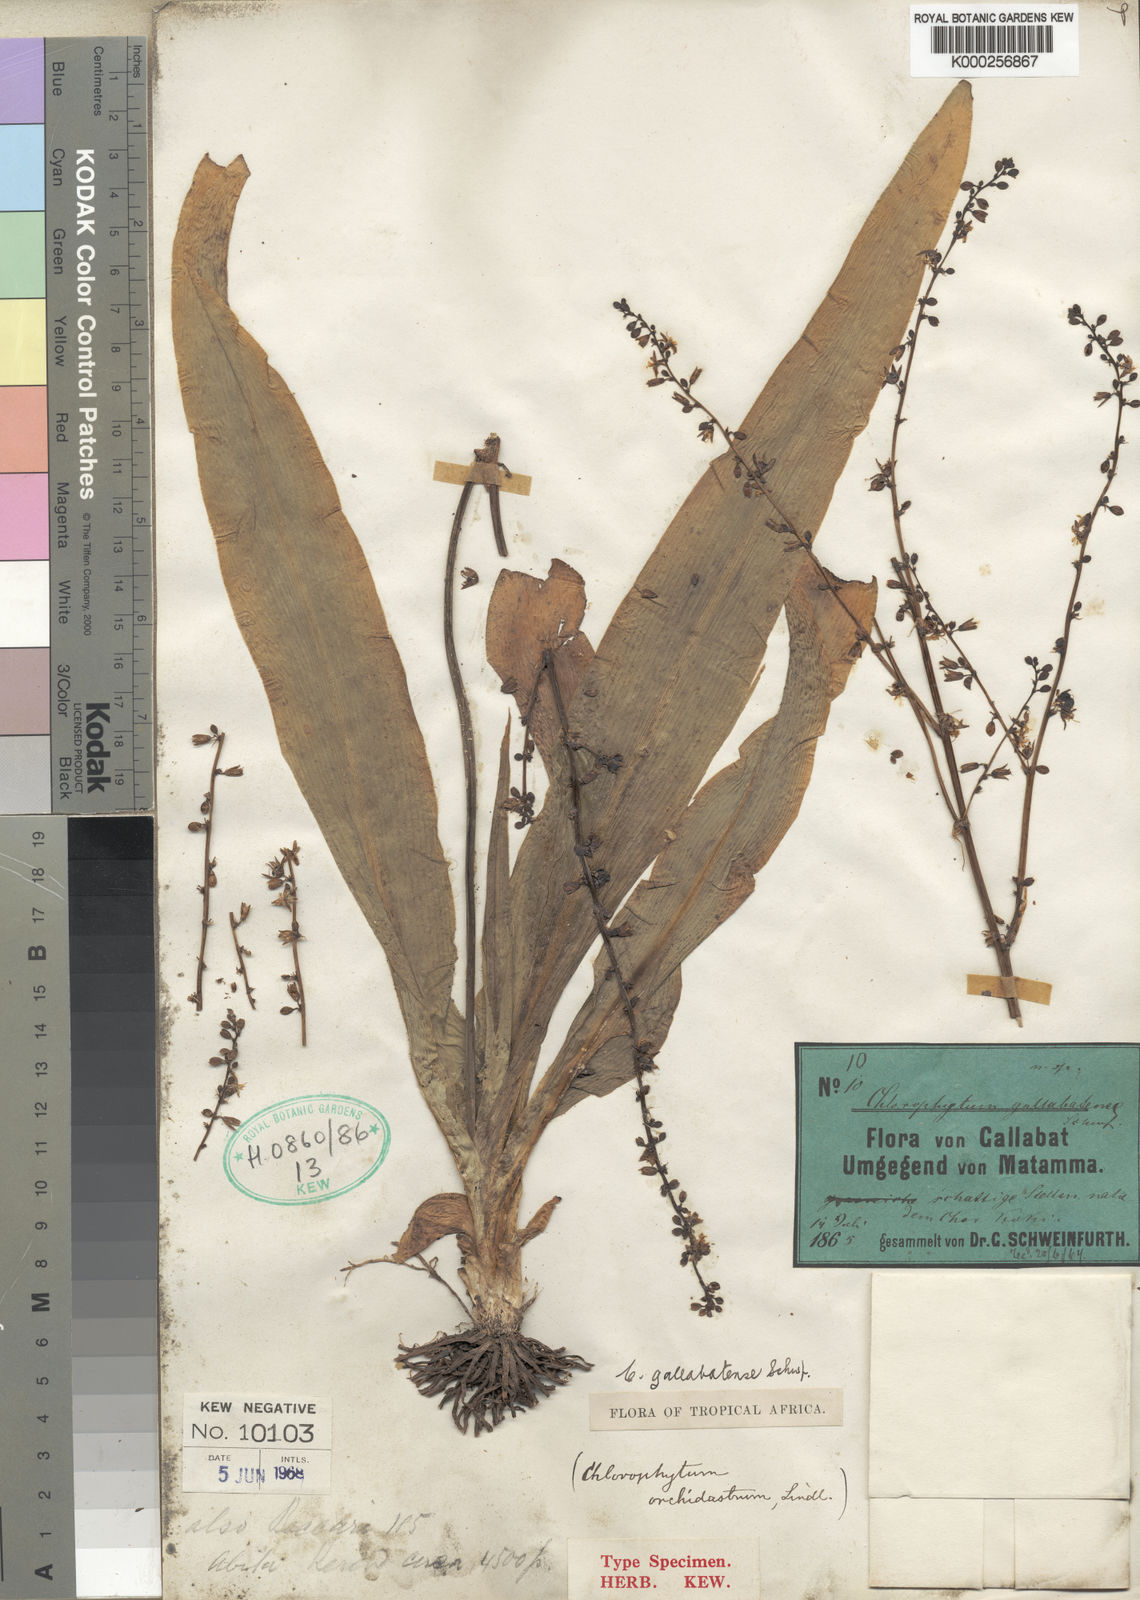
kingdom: Plantae
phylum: Tracheophyta
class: Liliopsida
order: Asparagales
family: Asparagaceae
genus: Chlorophytum
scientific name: Chlorophytum gallabatense
